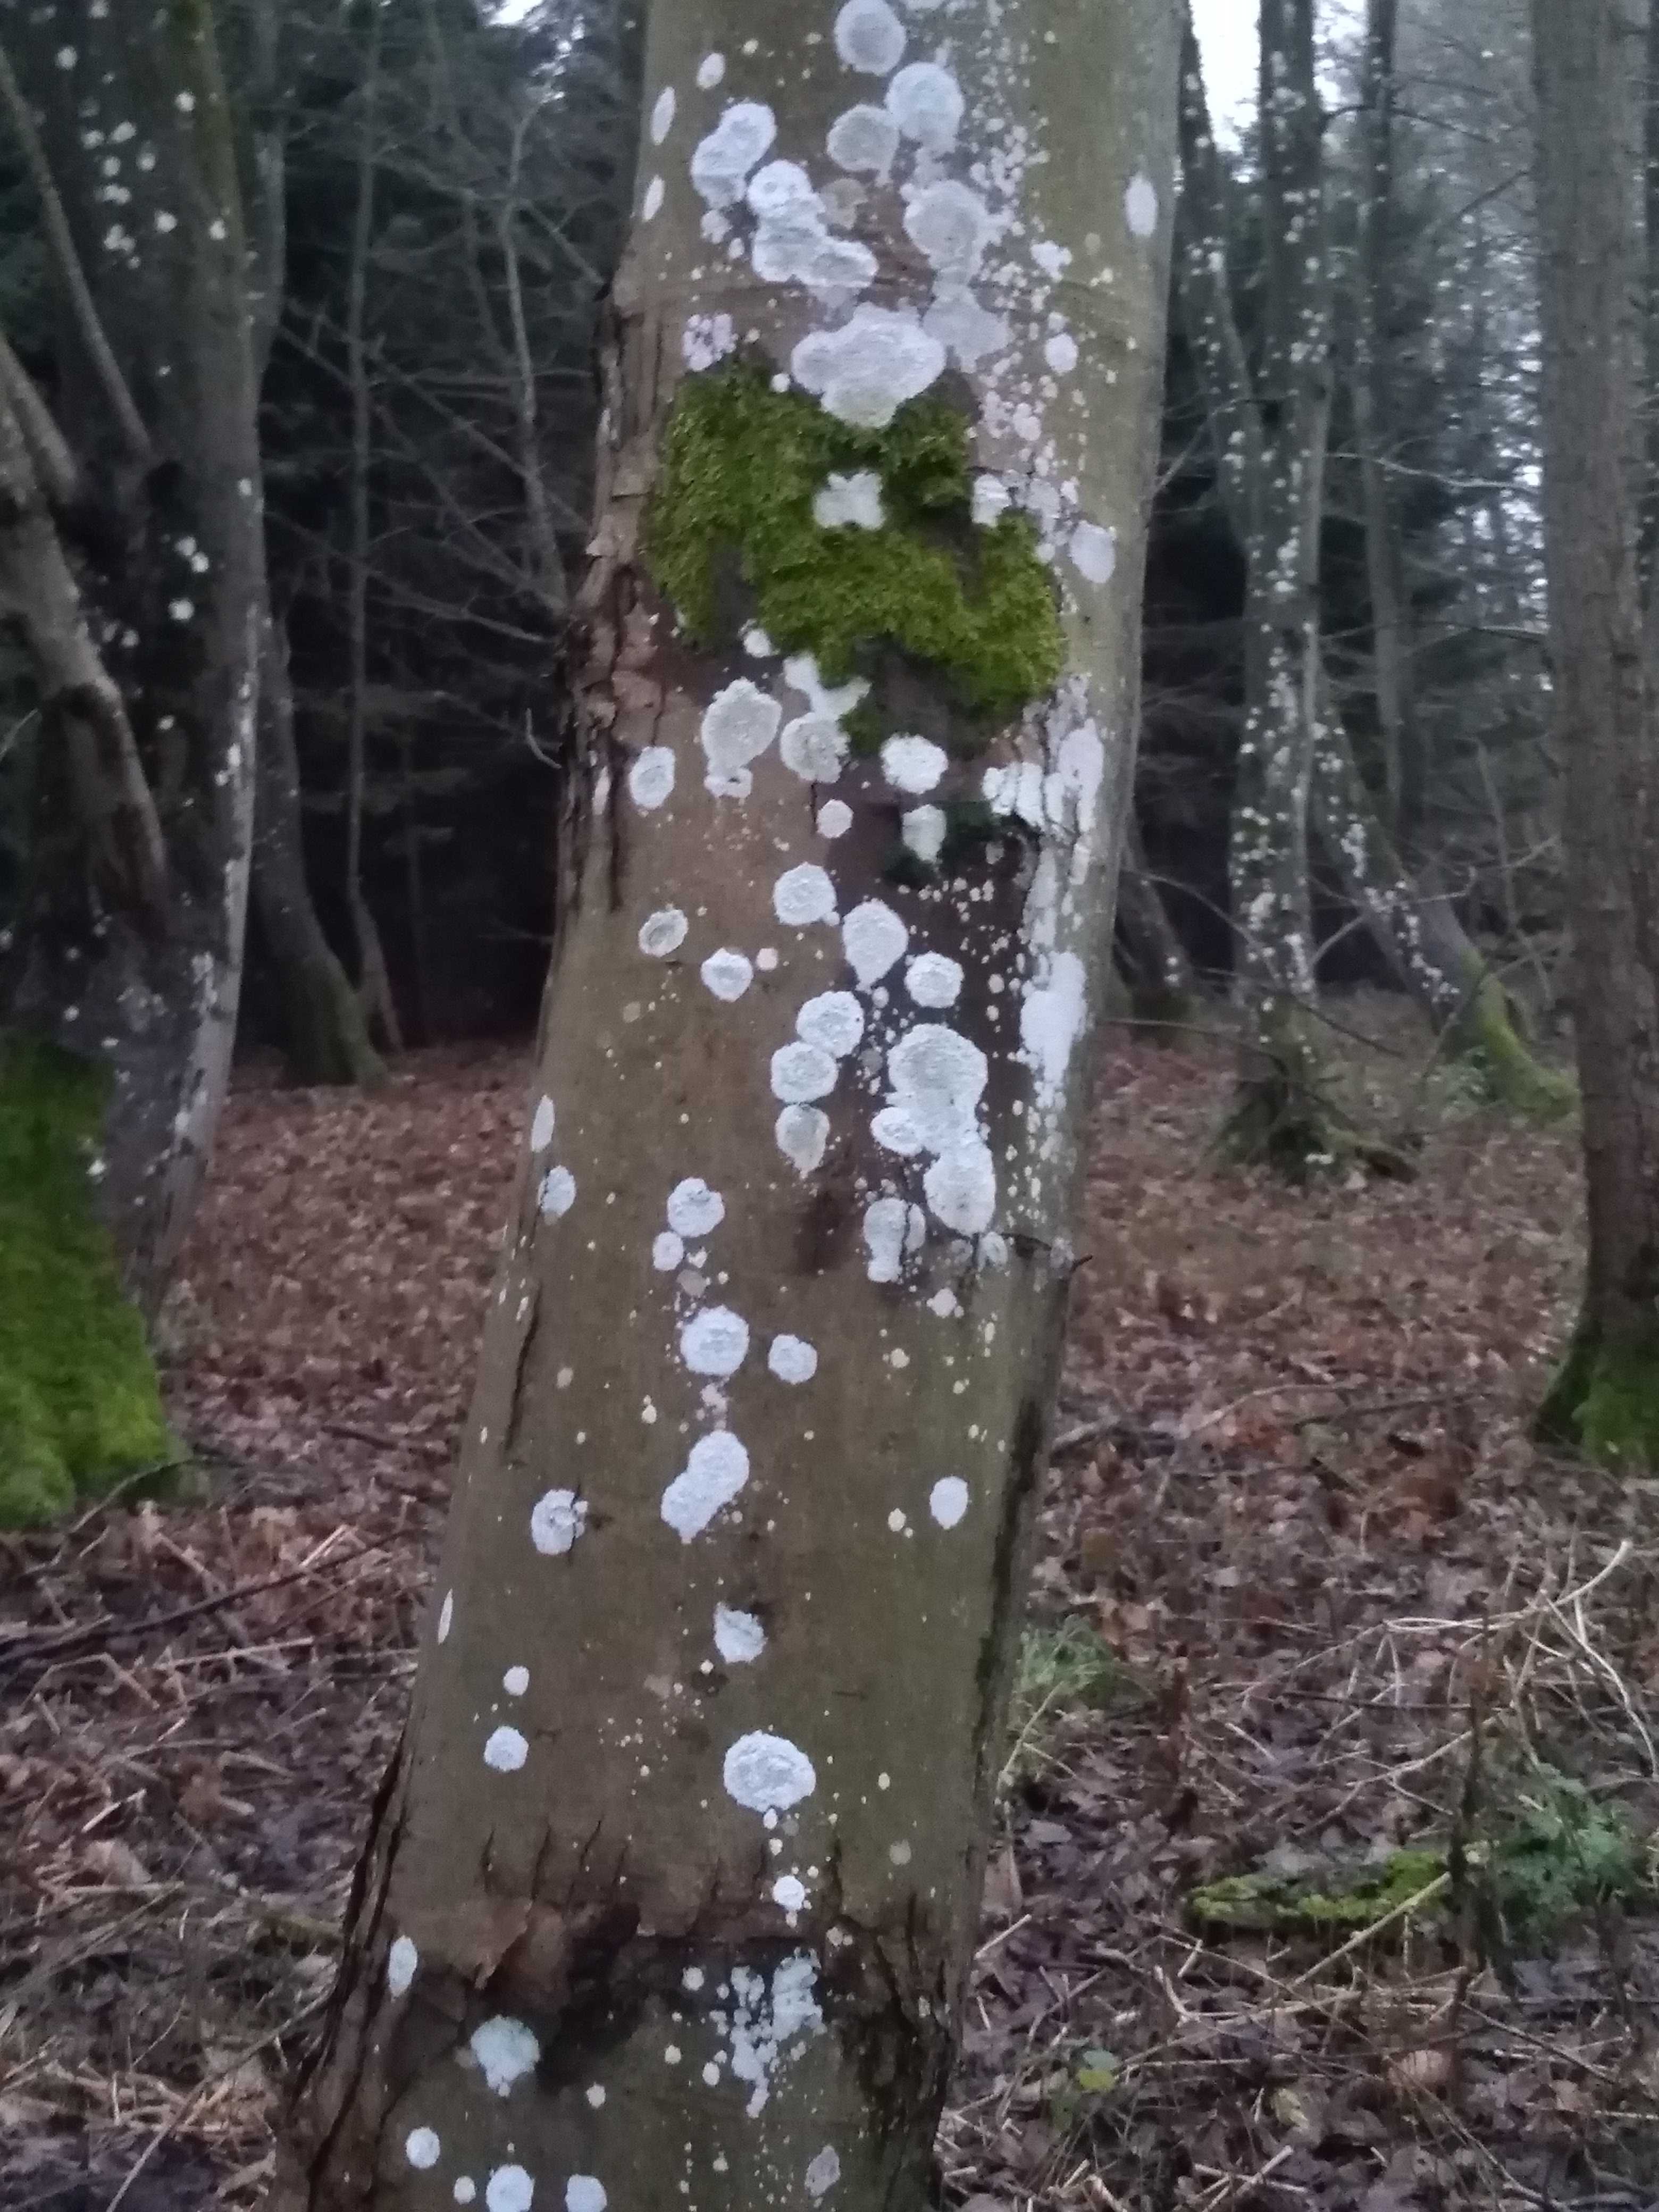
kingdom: Fungi
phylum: Ascomycota
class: Lecanoromycetes
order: Ostropales
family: Phlyctidaceae
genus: Phlyctis
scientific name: Phlyctis argena
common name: almindelig sølvlav
